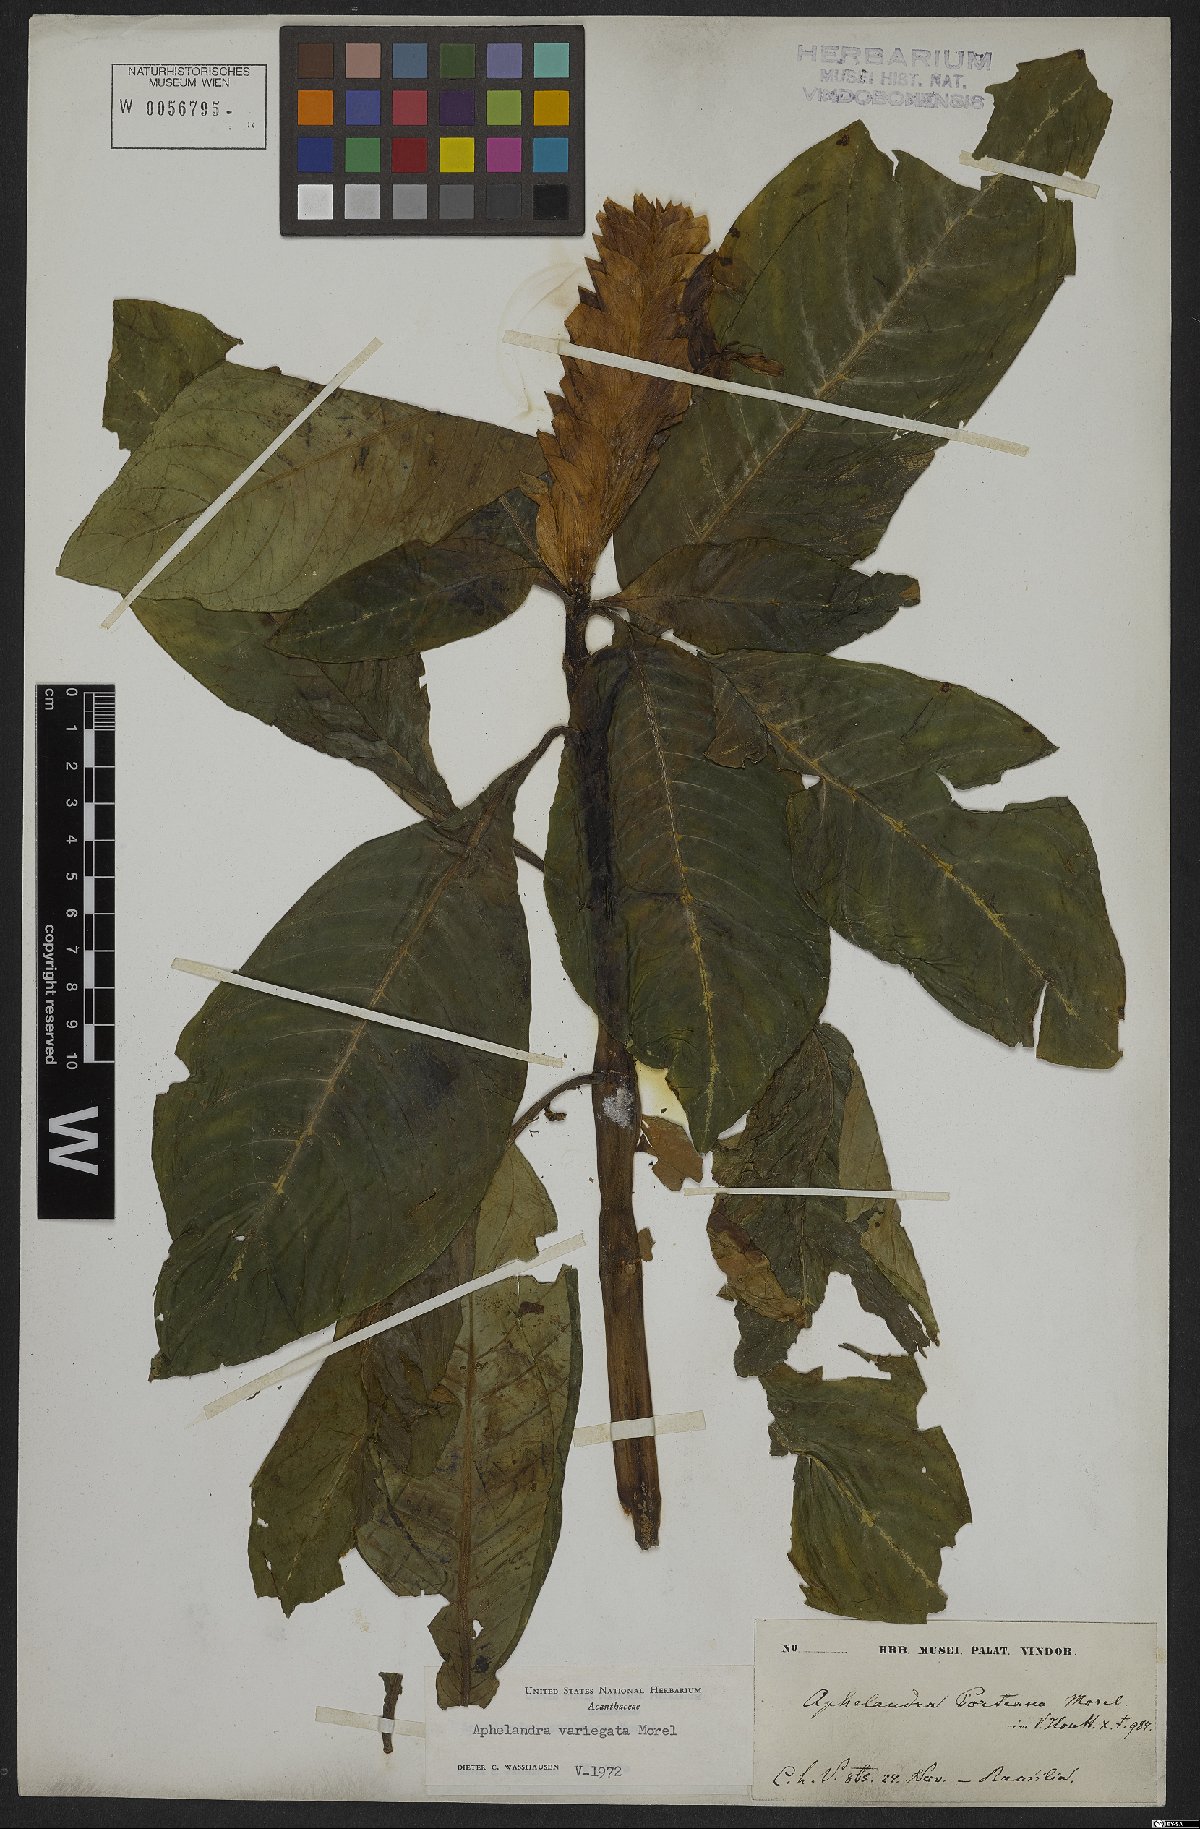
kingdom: Plantae
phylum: Tracheophyta
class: Magnoliopsida
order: Lamiales
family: Acanthaceae
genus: Aphelandra
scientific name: Aphelandra variegata
